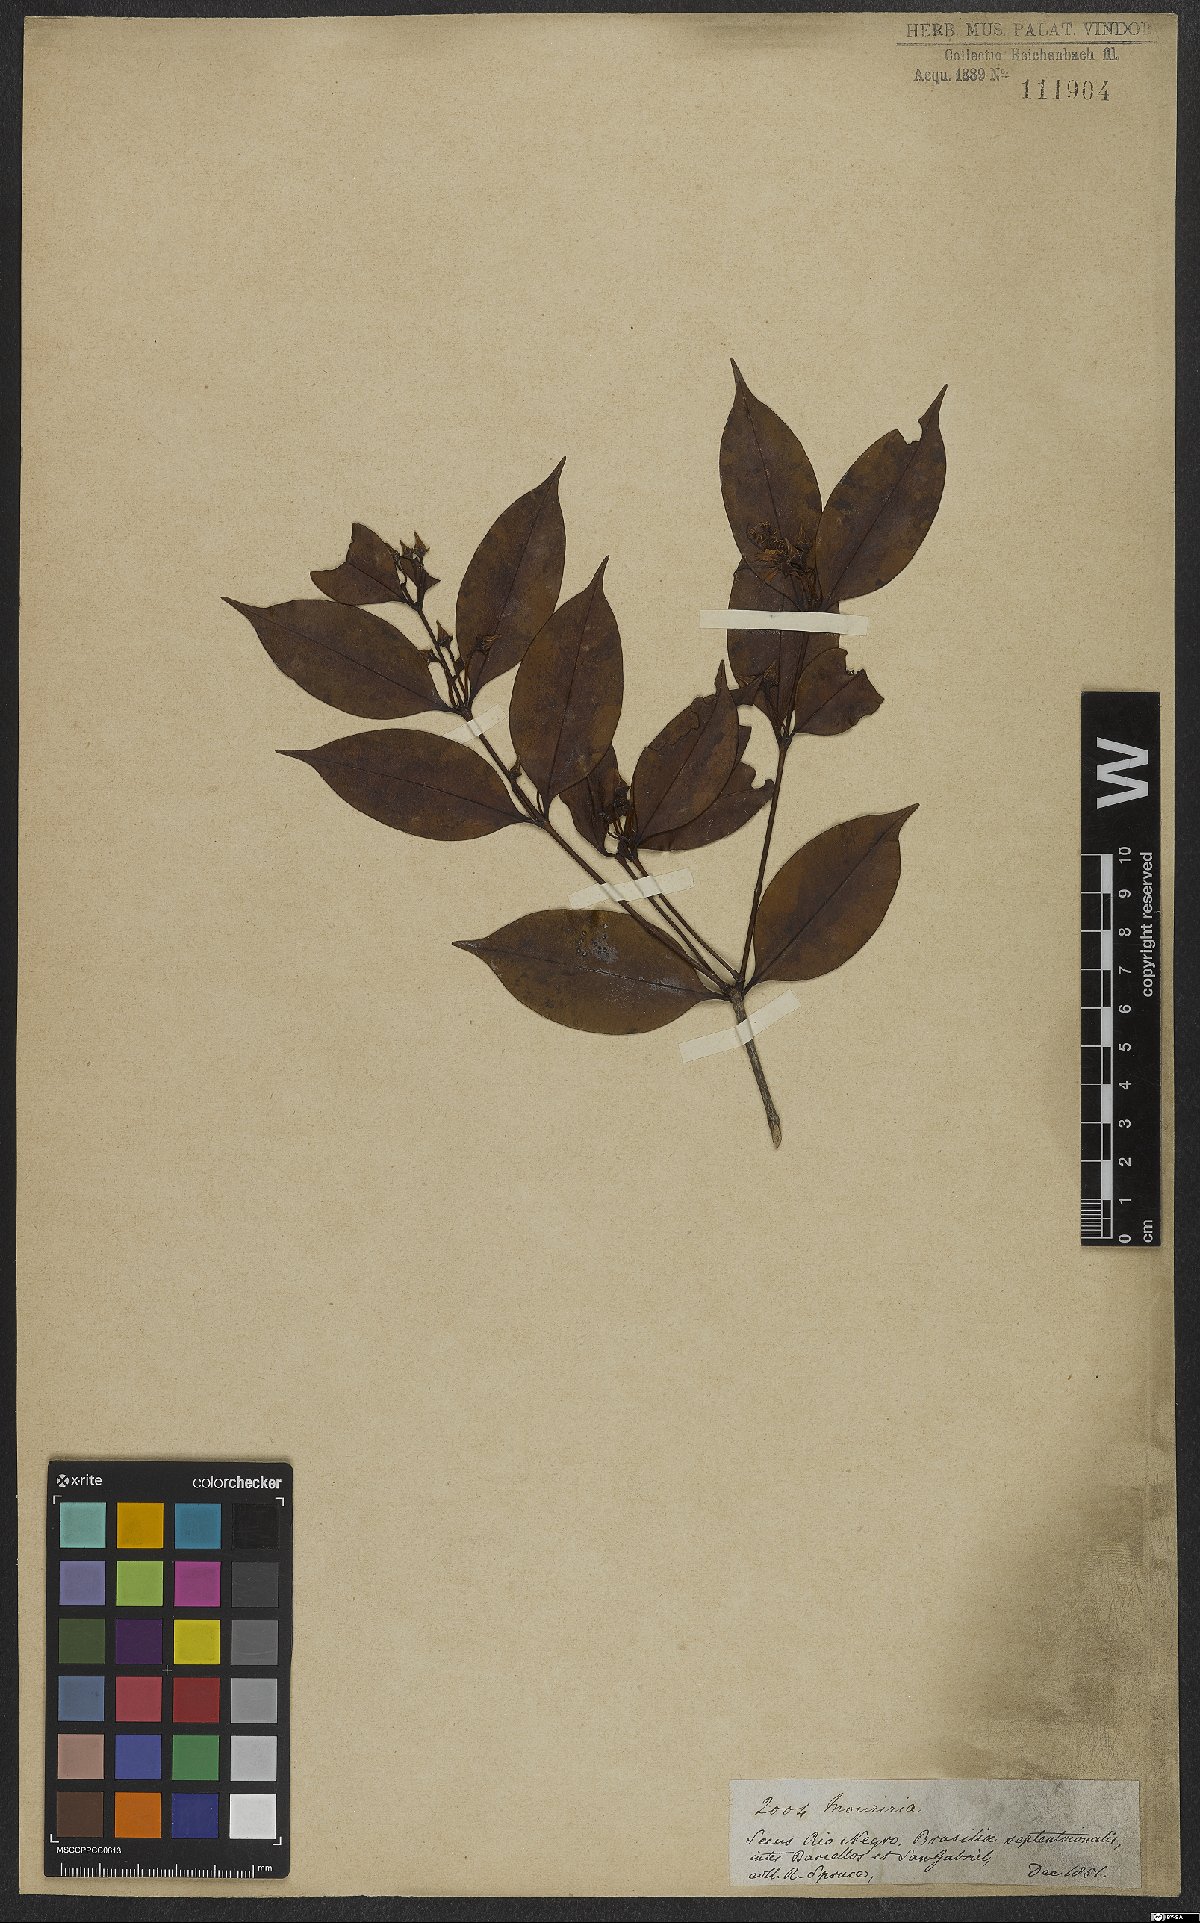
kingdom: Plantae
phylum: Tracheophyta
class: Magnoliopsida
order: Myrtales
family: Melastomataceae
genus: Mouriri
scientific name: Mouriri subumbellata
